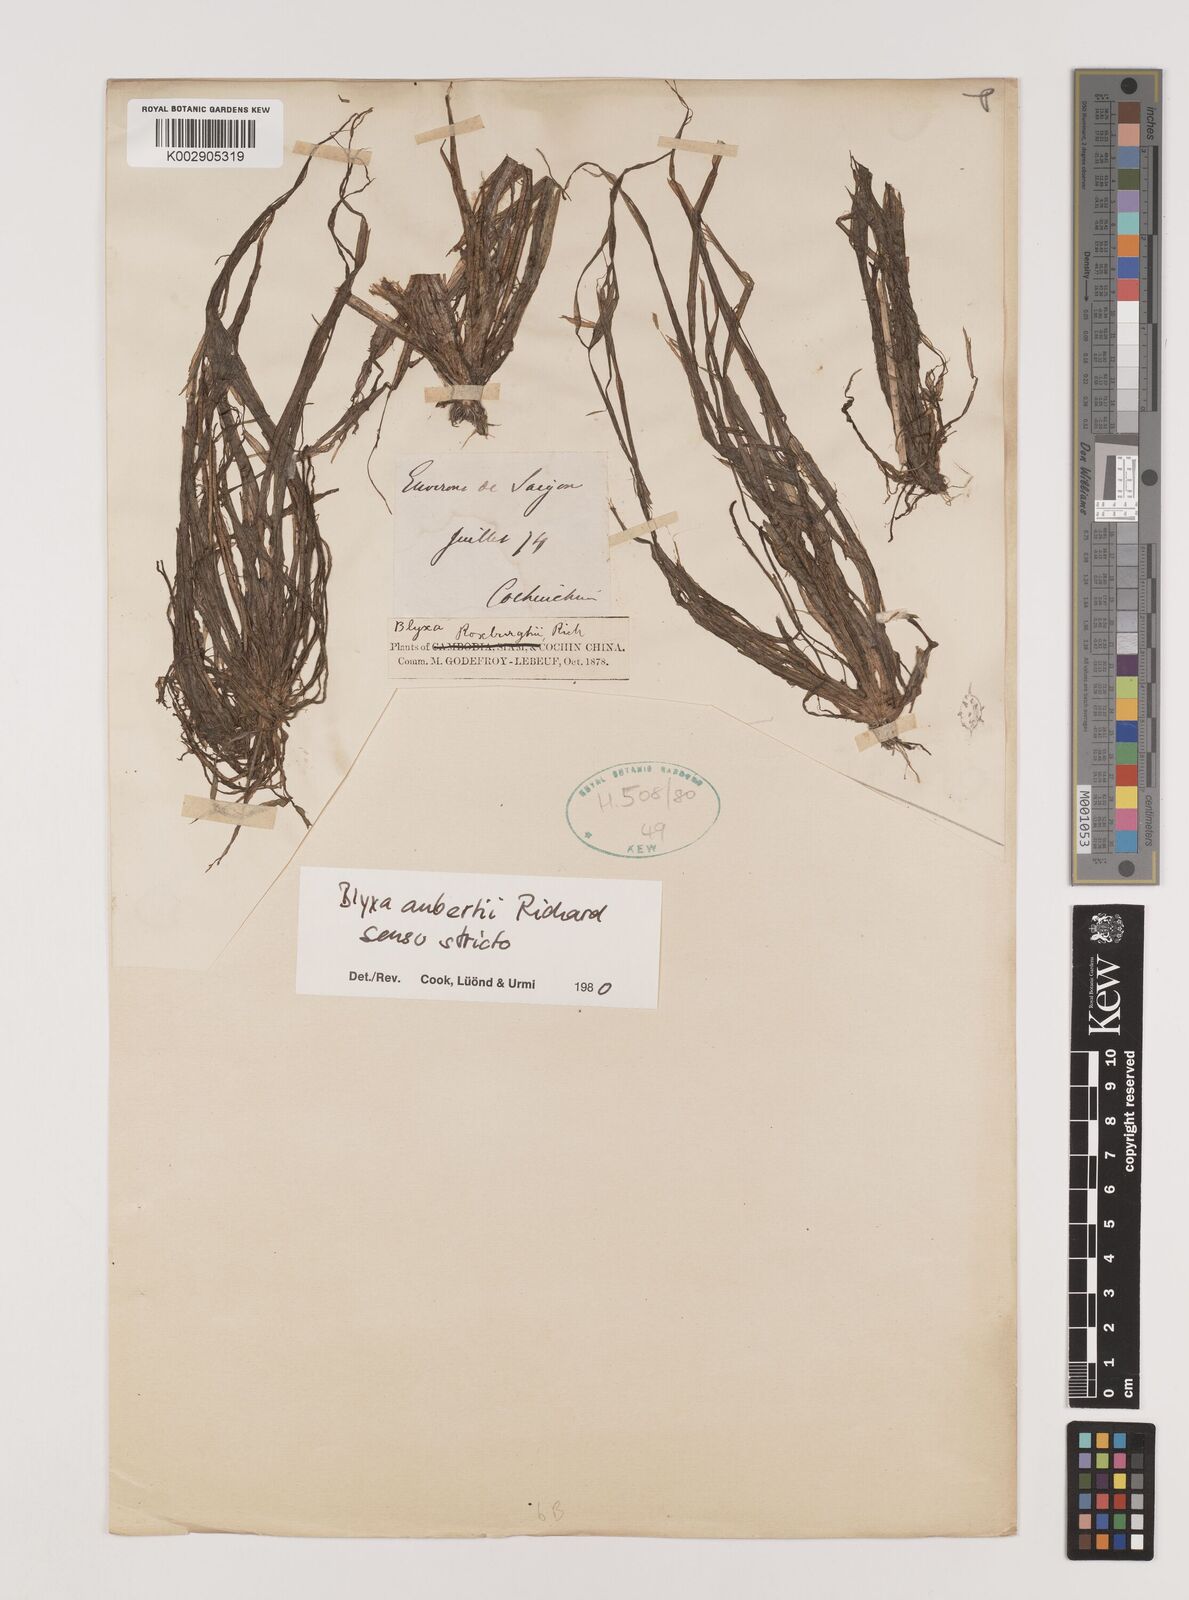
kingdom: Plantae
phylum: Tracheophyta
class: Liliopsida
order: Alismatales
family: Hydrocharitaceae
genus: Blyxa
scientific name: Blyxa aubertii
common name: Roundfruit blyxa
